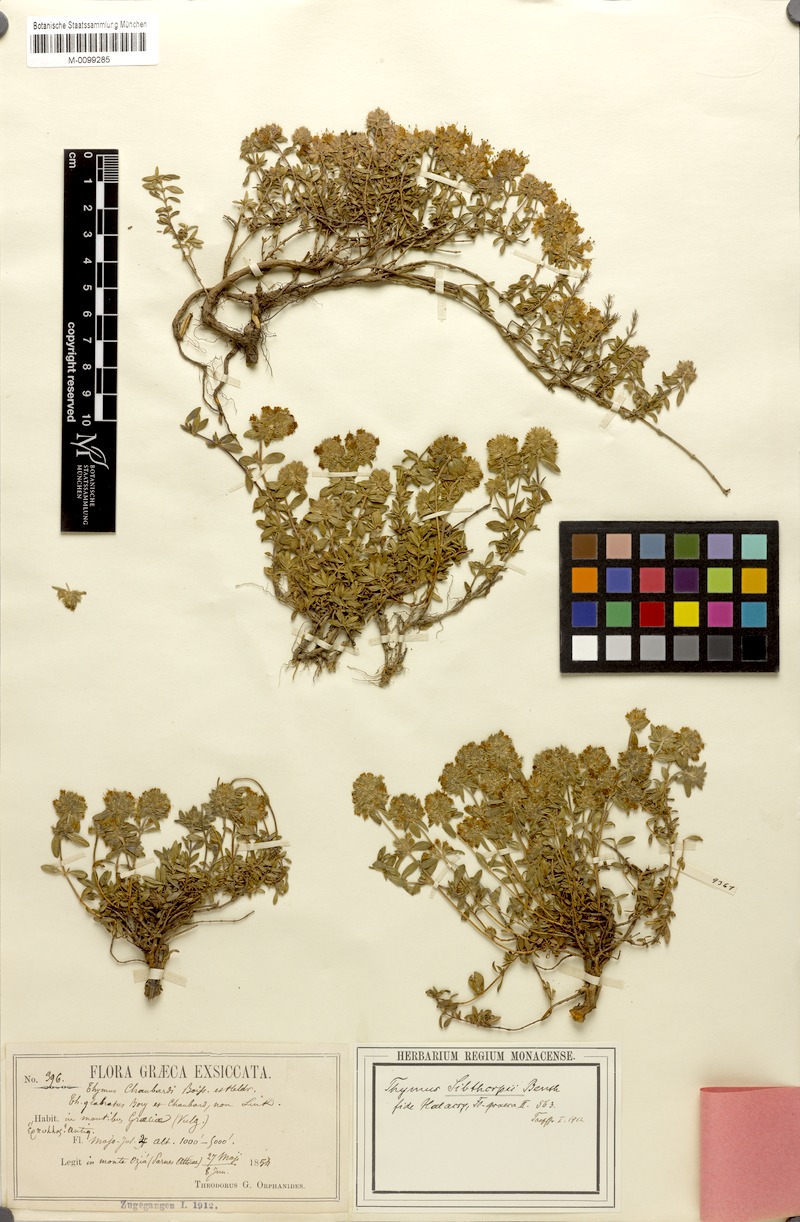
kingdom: Plantae
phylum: Tracheophyta
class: Magnoliopsida
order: Lamiales
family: Lamiaceae
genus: Thymus
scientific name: Thymus longicaulis
